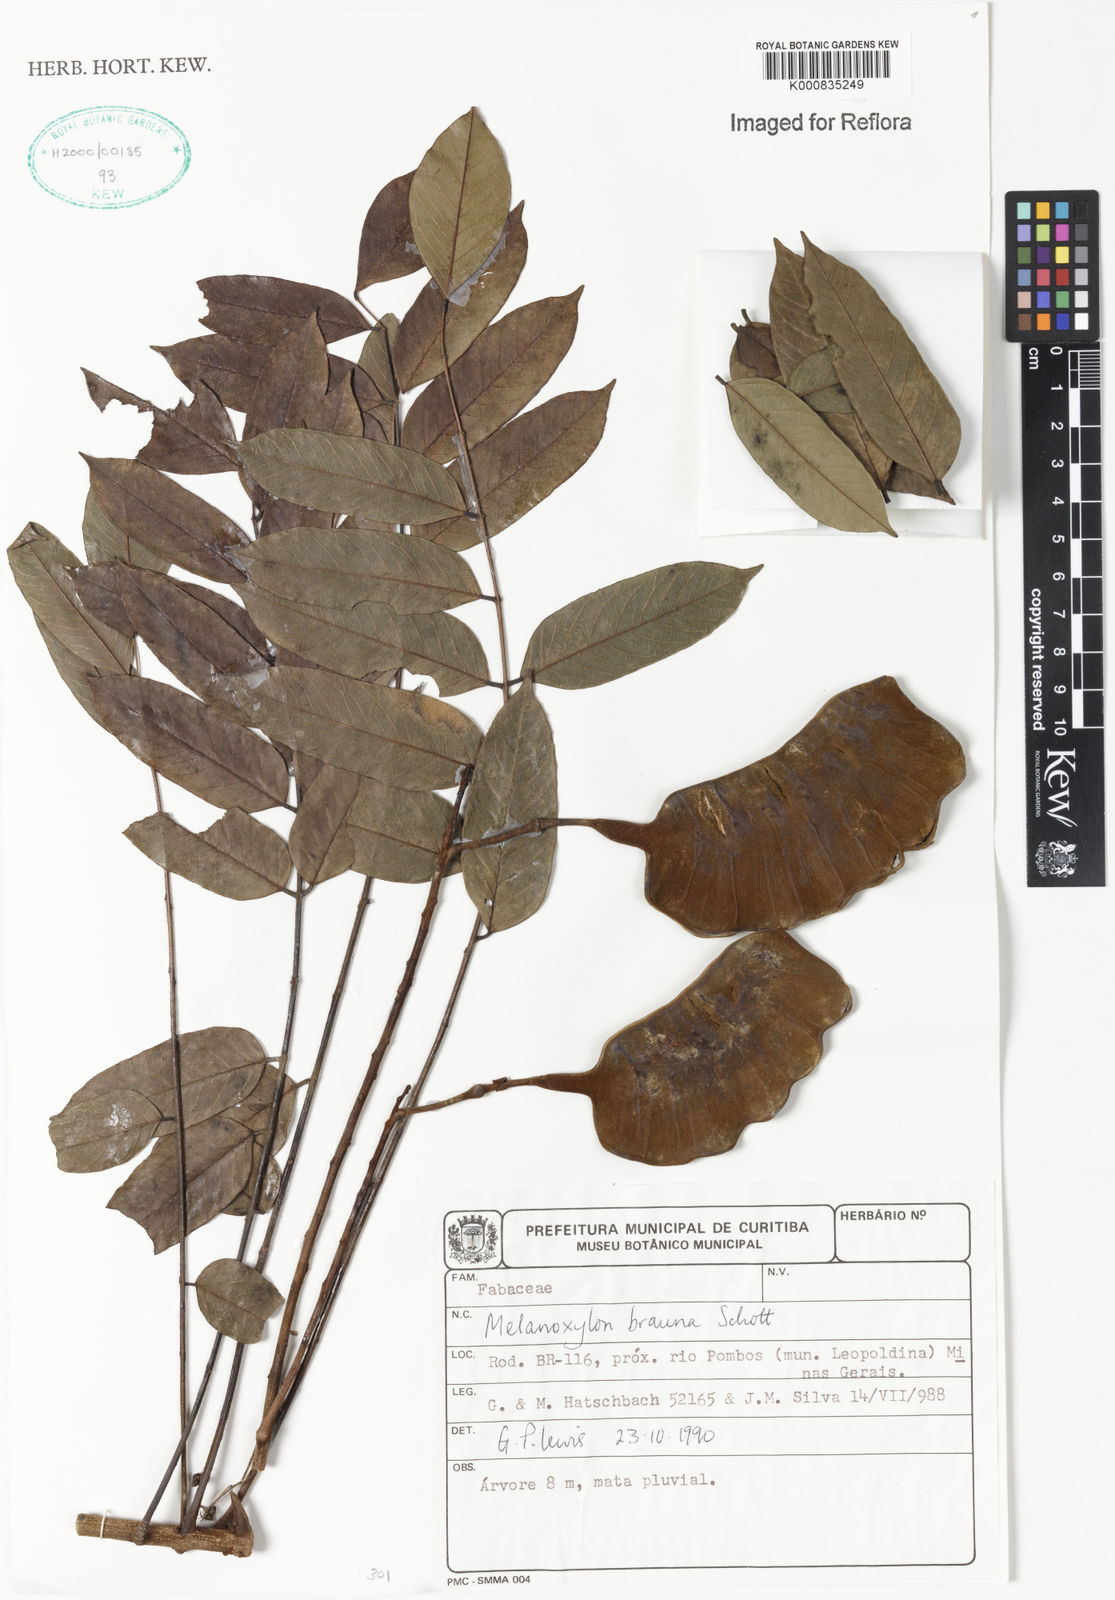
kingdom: Plantae
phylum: Tracheophyta
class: Magnoliopsida
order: Fabales
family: Fabaceae
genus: Melanoxylum
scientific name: Melanoxylum brauna
